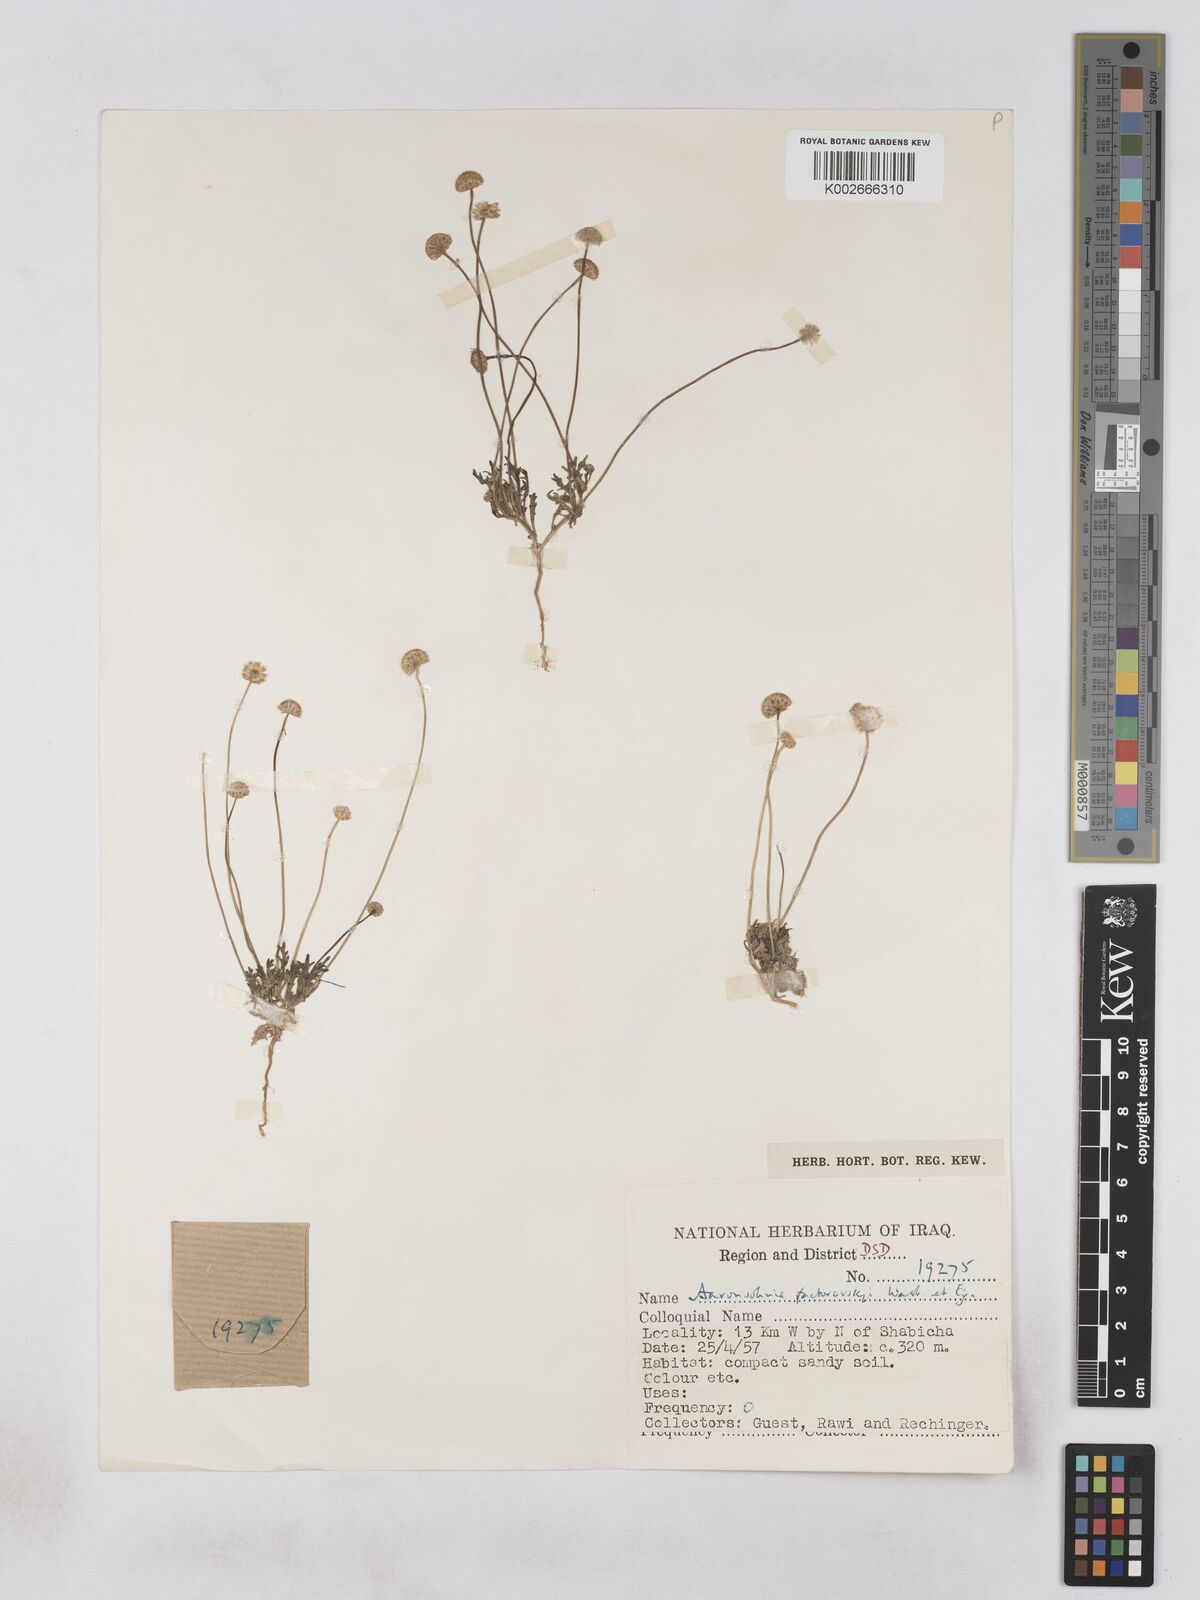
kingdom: Plantae
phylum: Tracheophyta
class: Magnoliopsida
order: Asterales
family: Asteraceae
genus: Otoglyphis
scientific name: Otoglyphis factorovskyi
